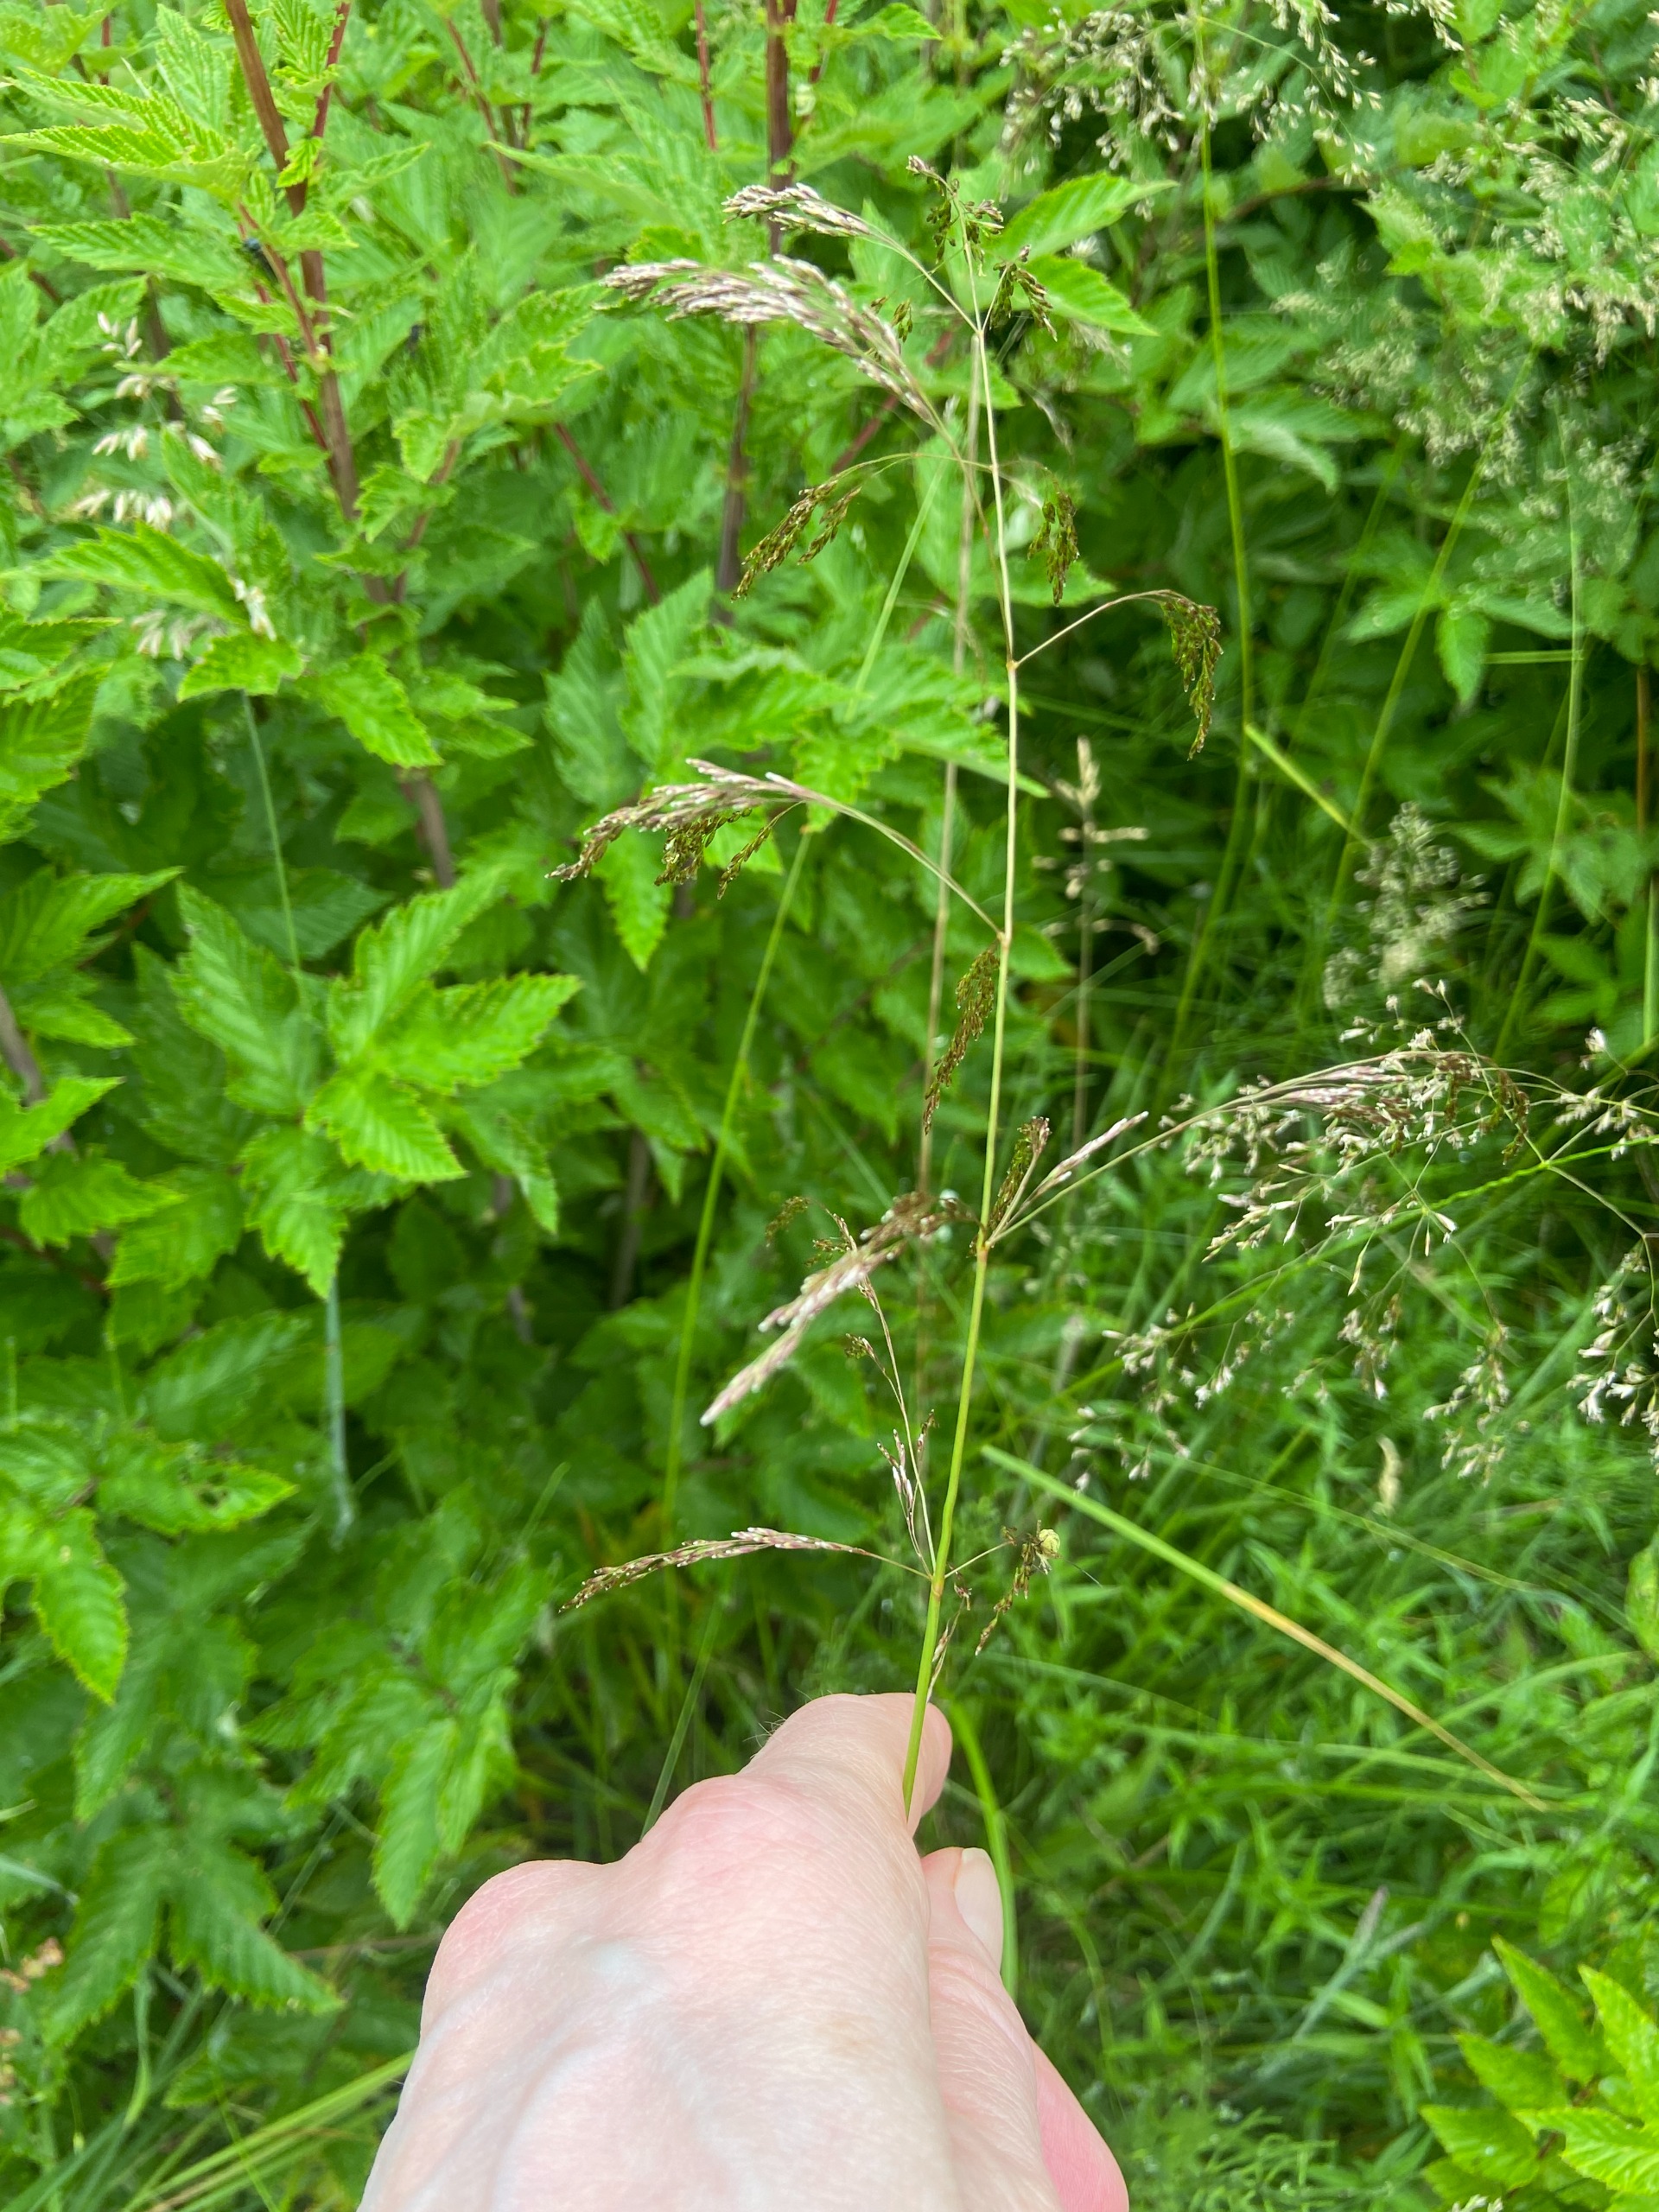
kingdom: Plantae
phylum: Tracheophyta
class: Liliopsida
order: Poales
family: Poaceae
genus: Deschampsia
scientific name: Deschampsia cespitosa
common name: Mose-bunke
